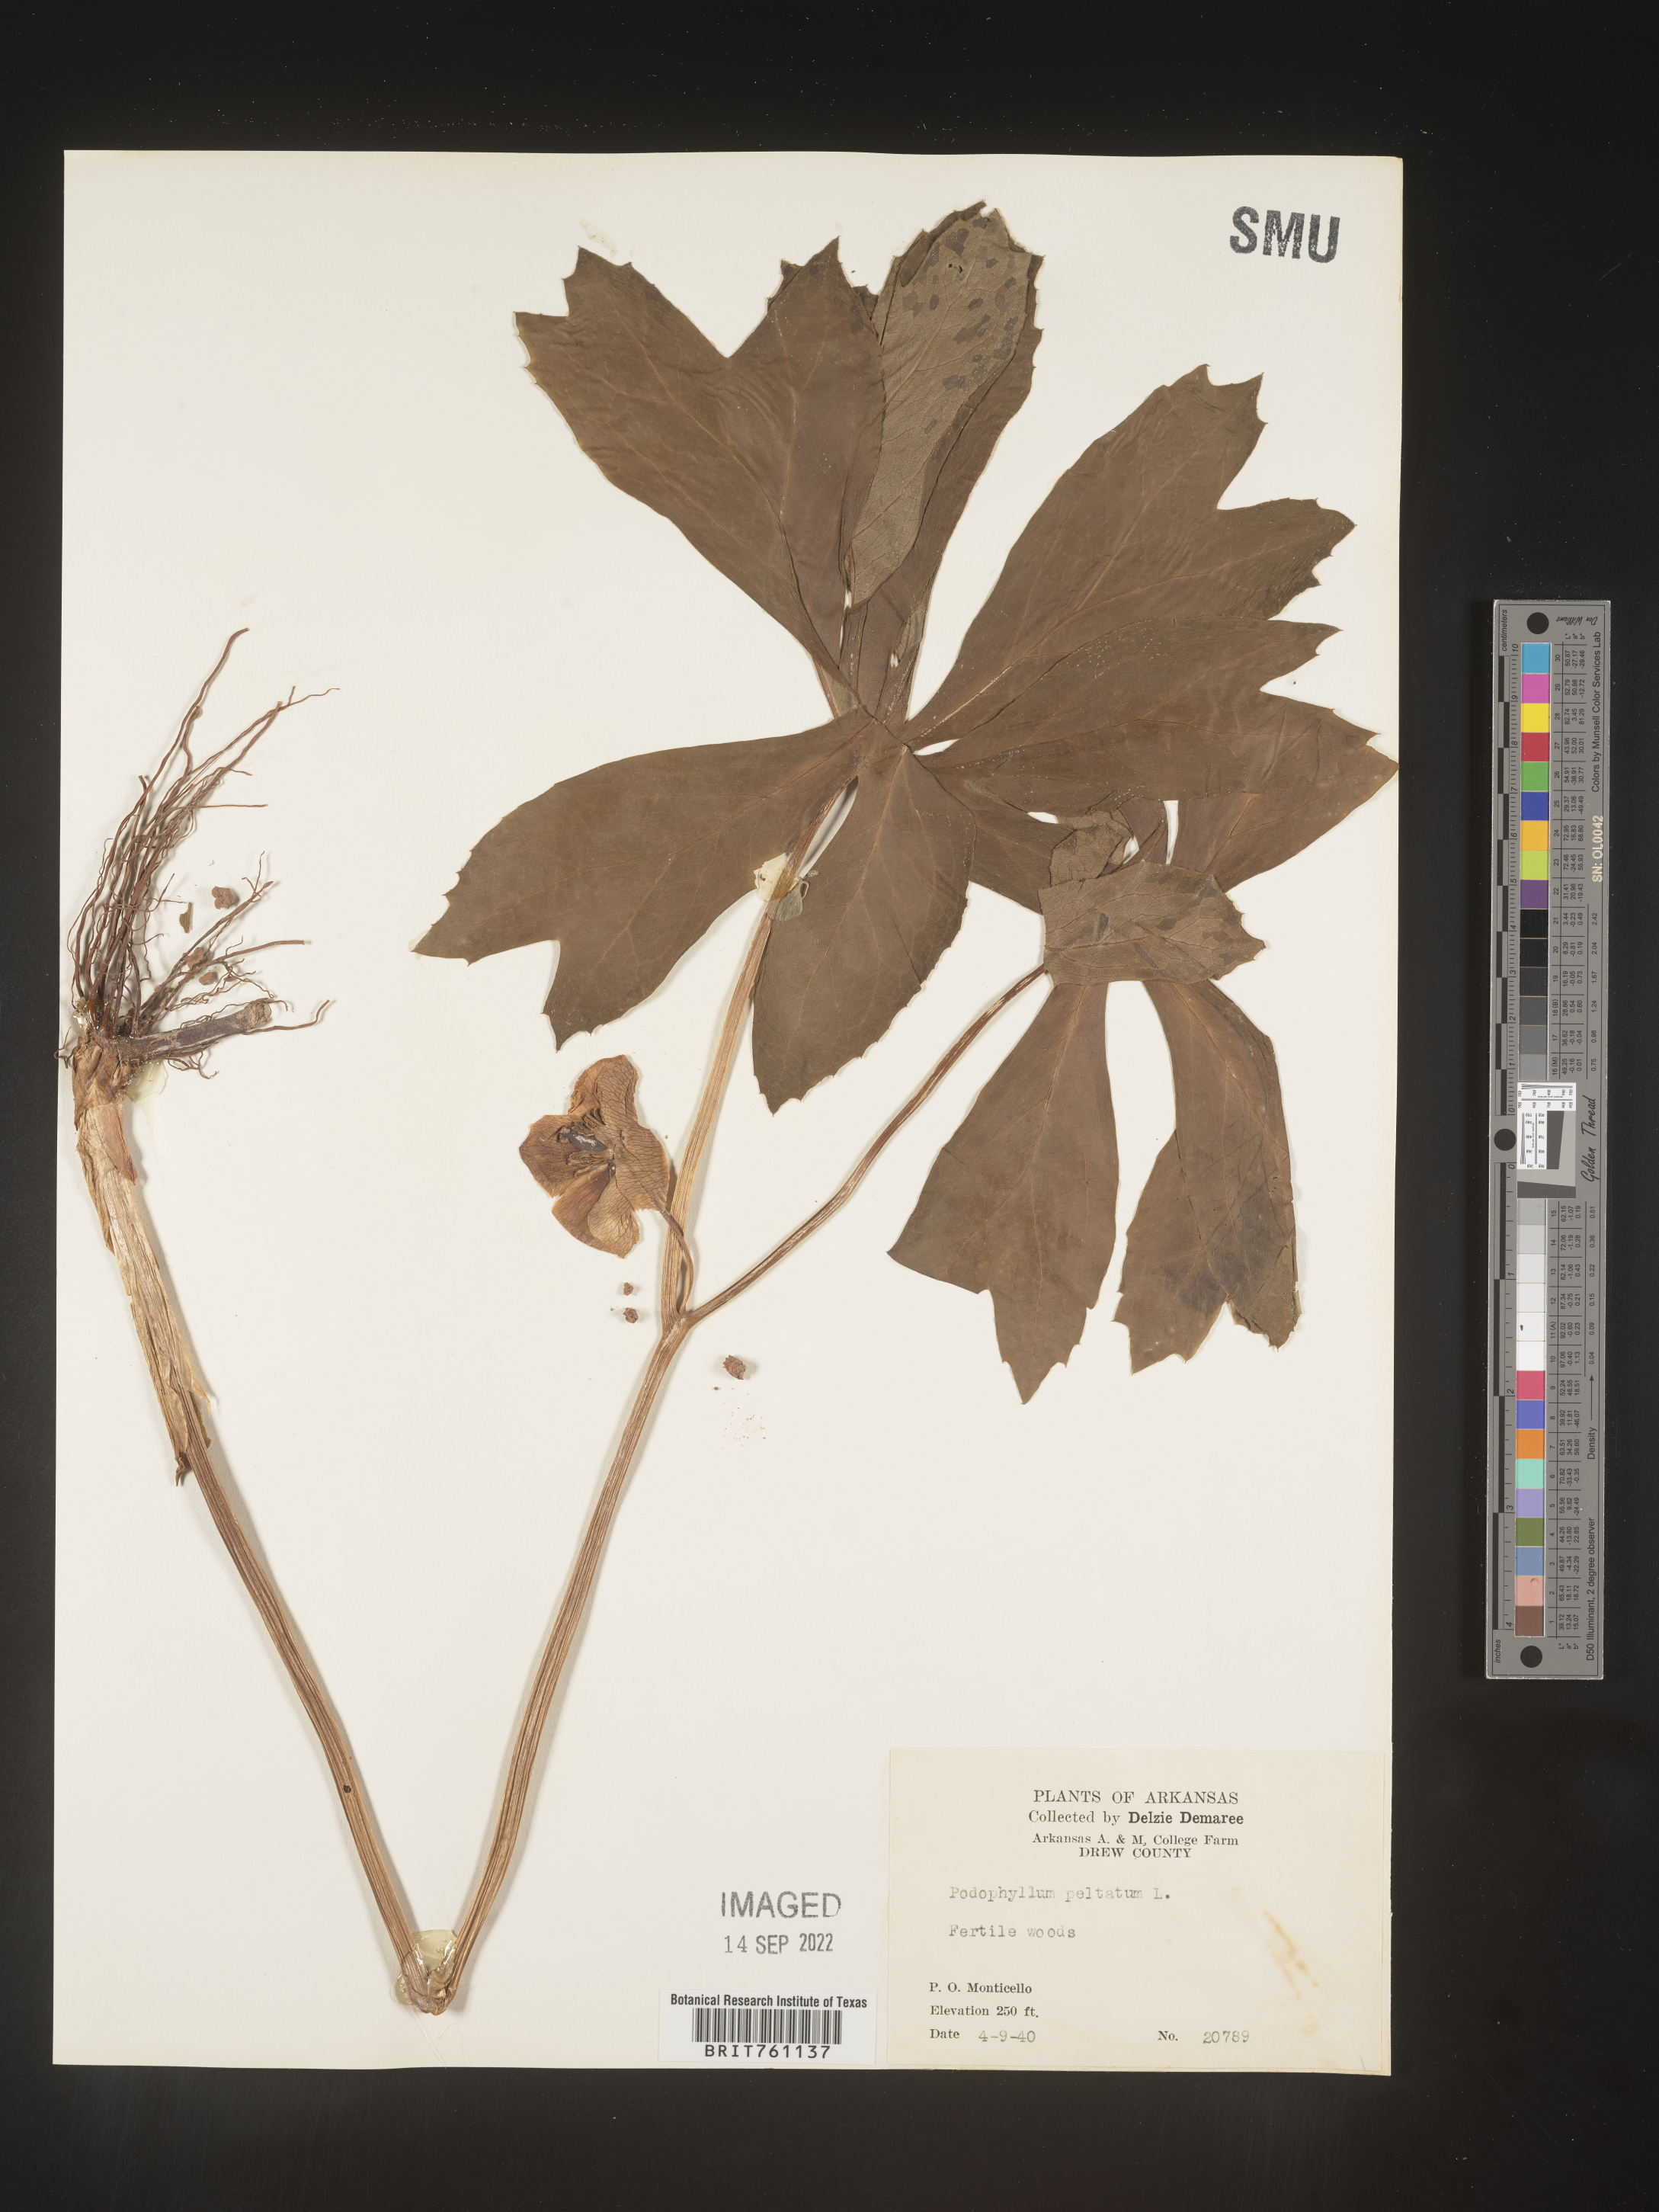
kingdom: Plantae
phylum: Tracheophyta
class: Magnoliopsida
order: Ranunculales
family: Berberidaceae
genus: Podophyllum
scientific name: Podophyllum peltatum
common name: Wild mandrake
